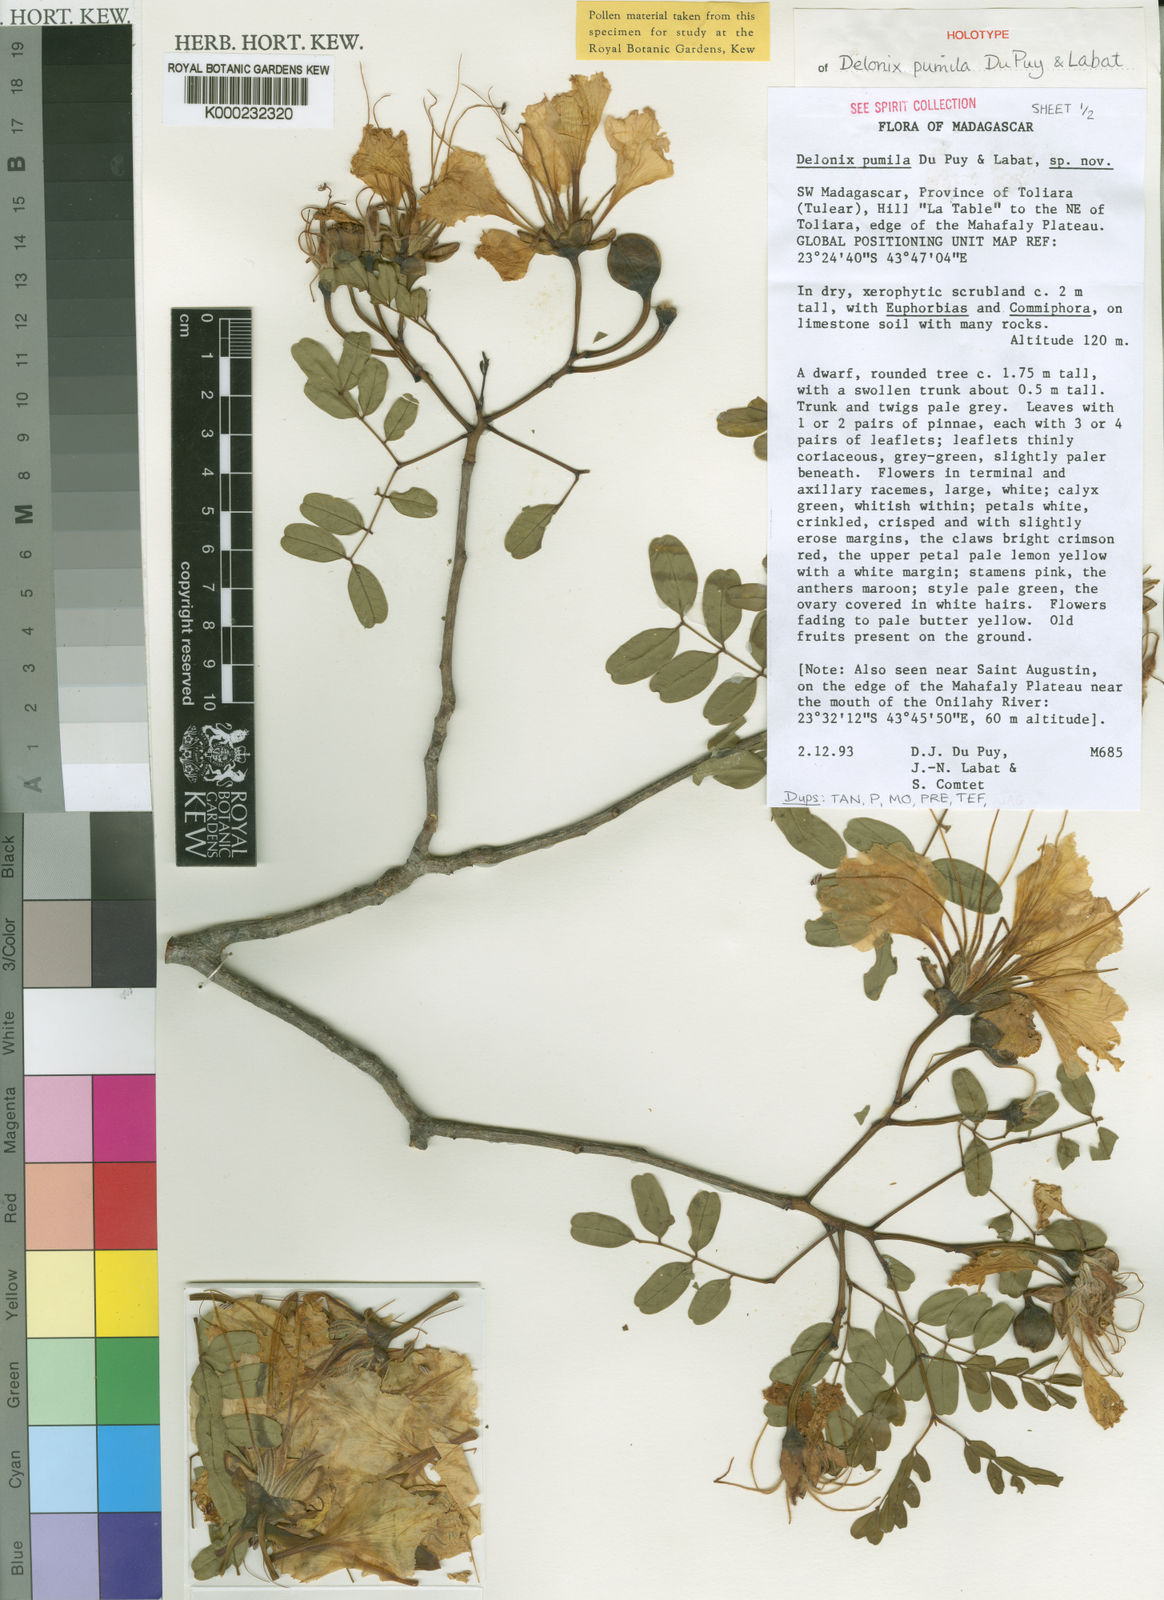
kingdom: Plantae
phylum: Tracheophyta
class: Magnoliopsida
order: Fabales
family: Fabaceae
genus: Delonix
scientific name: Delonix pumila
